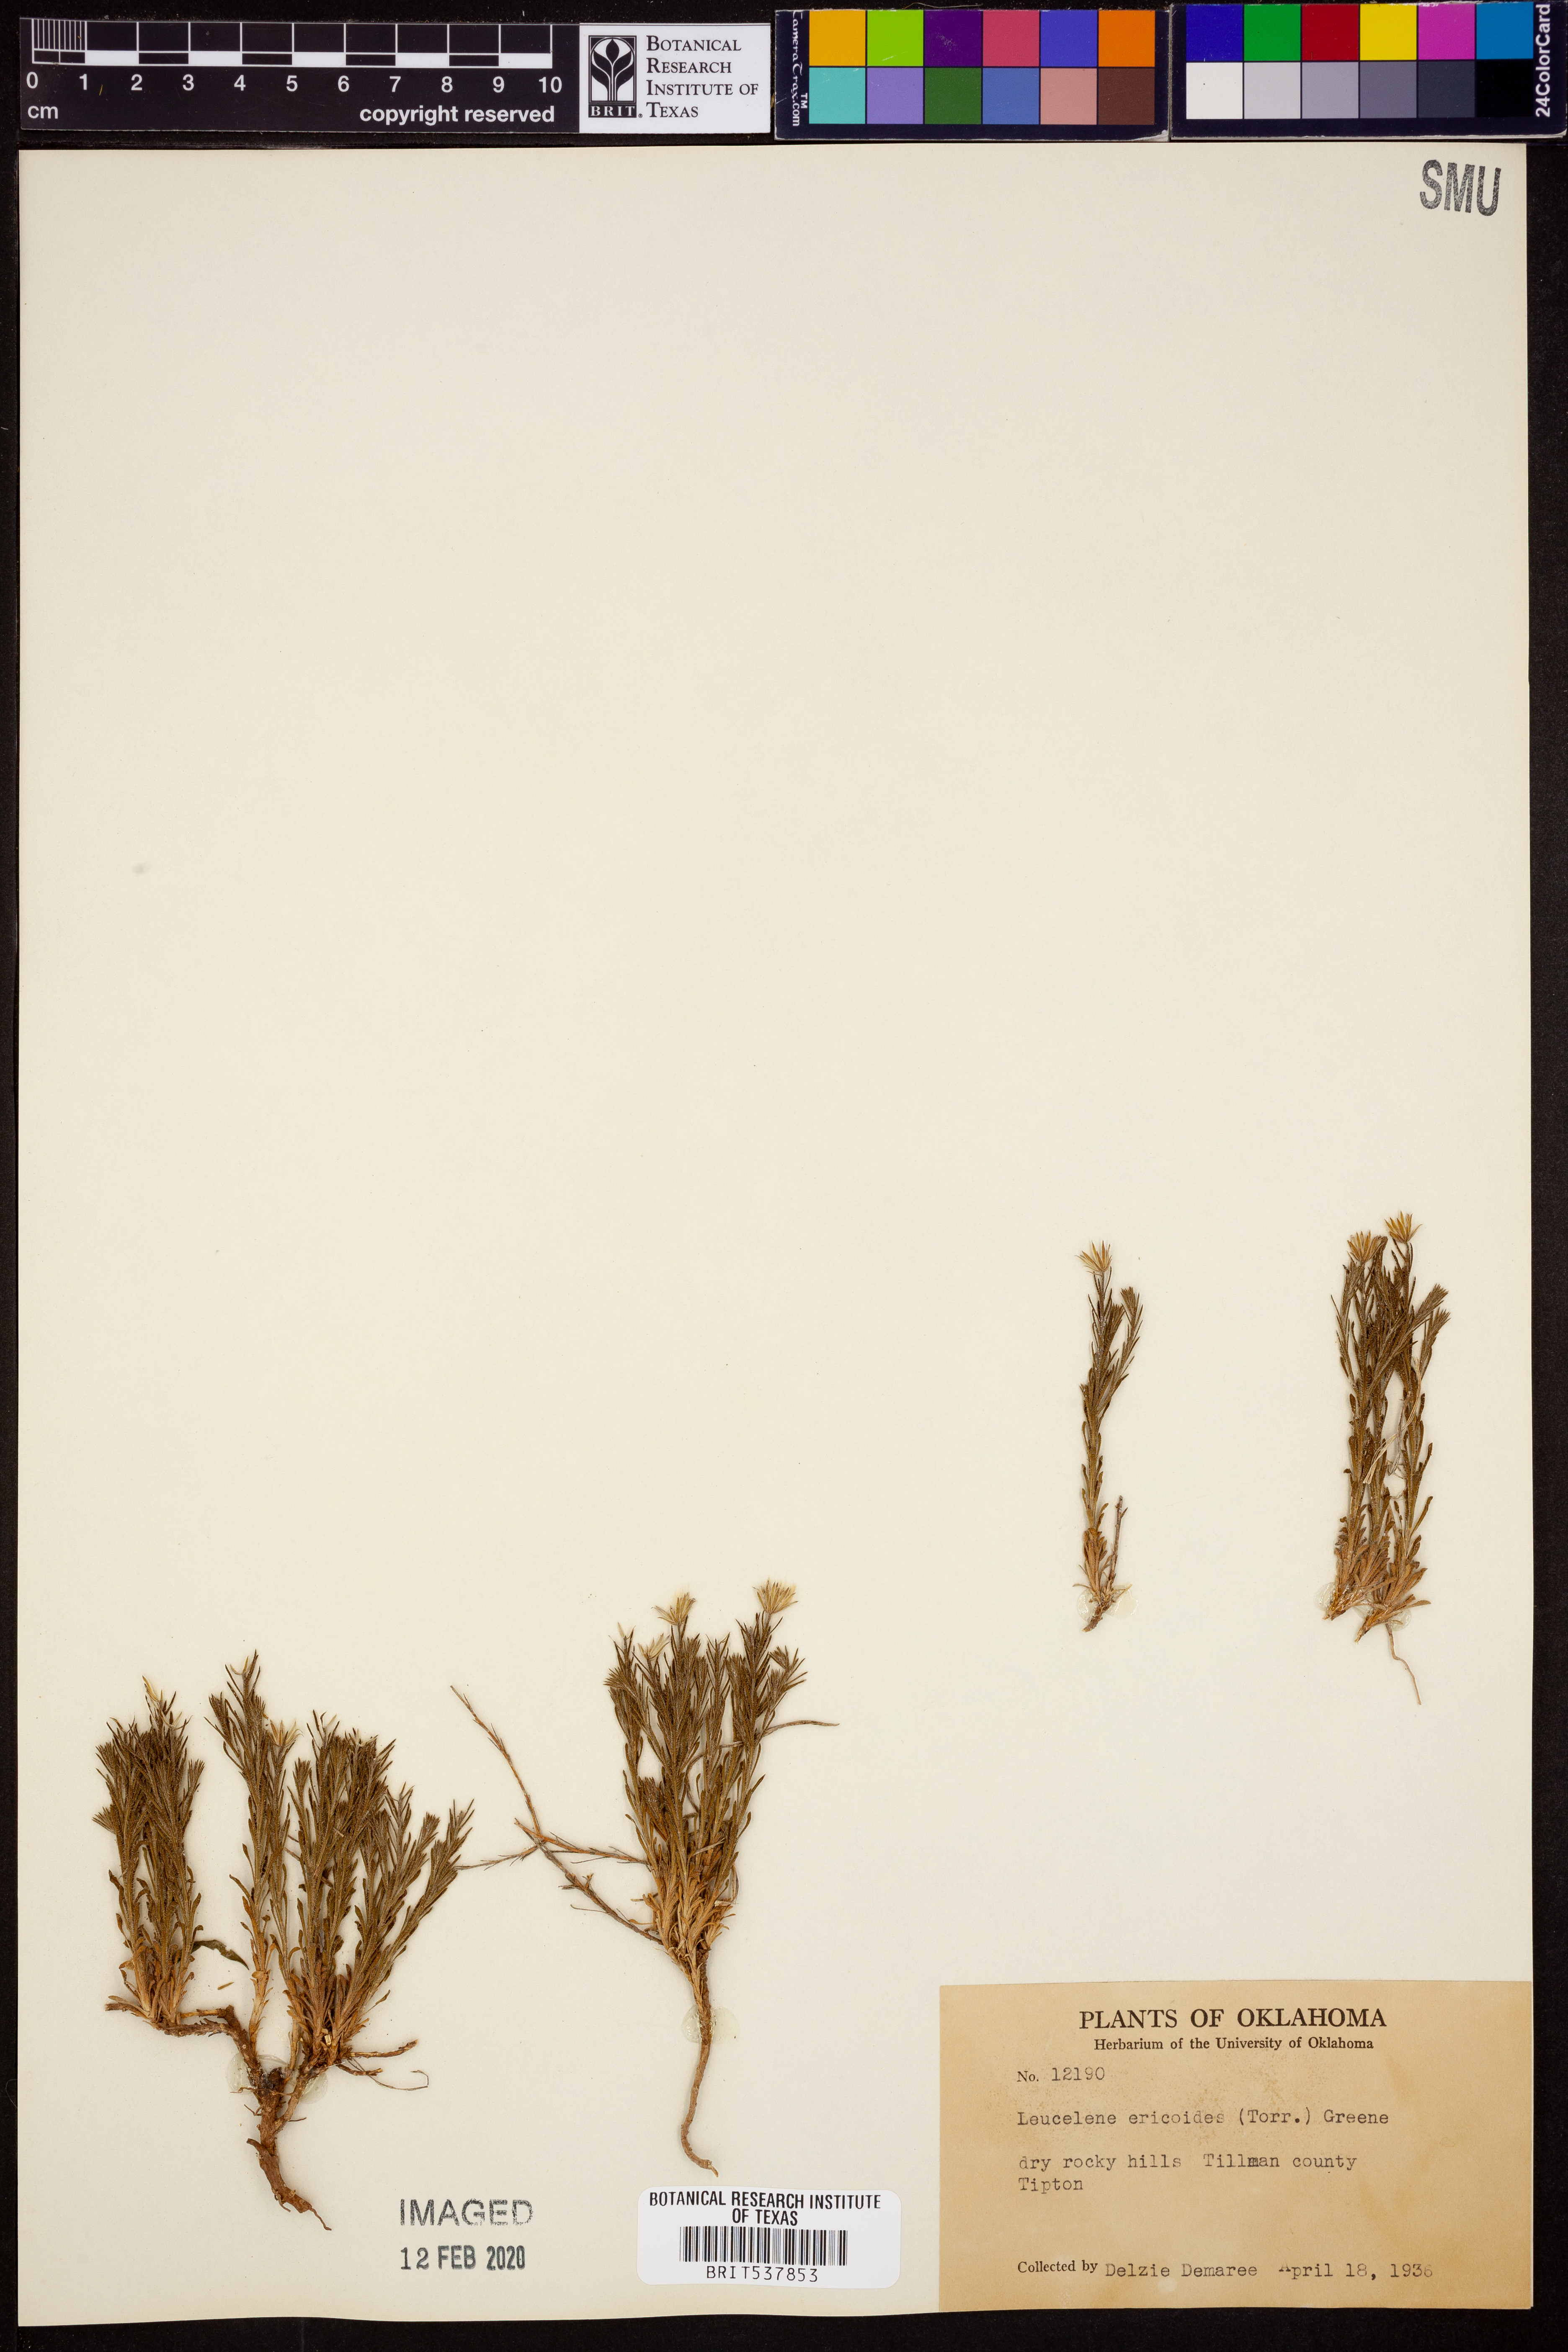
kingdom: Plantae
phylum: Tracheophyta
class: Magnoliopsida
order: Asterales
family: Asteraceae
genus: Chaetopappa
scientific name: Chaetopappa ericoides
